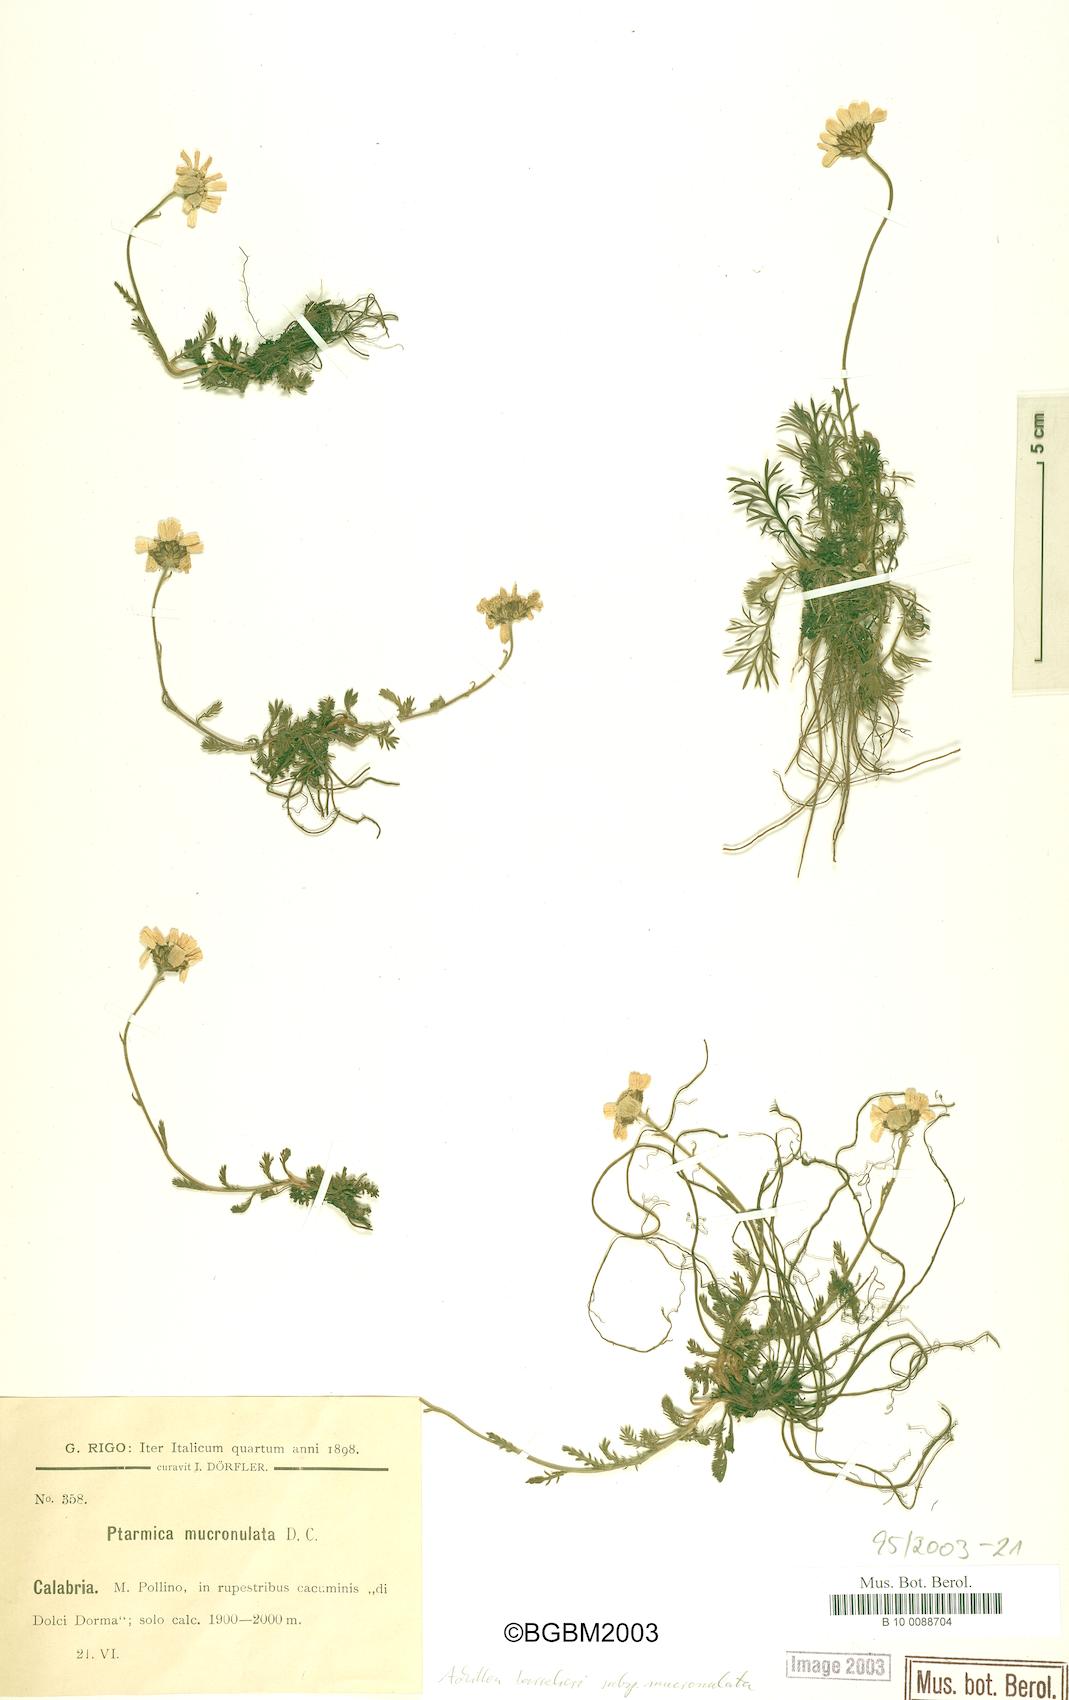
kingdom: Plantae
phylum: Tracheophyta
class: Magnoliopsida
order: Asterales
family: Asteraceae
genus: Achillea
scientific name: Achillea barrelieri
